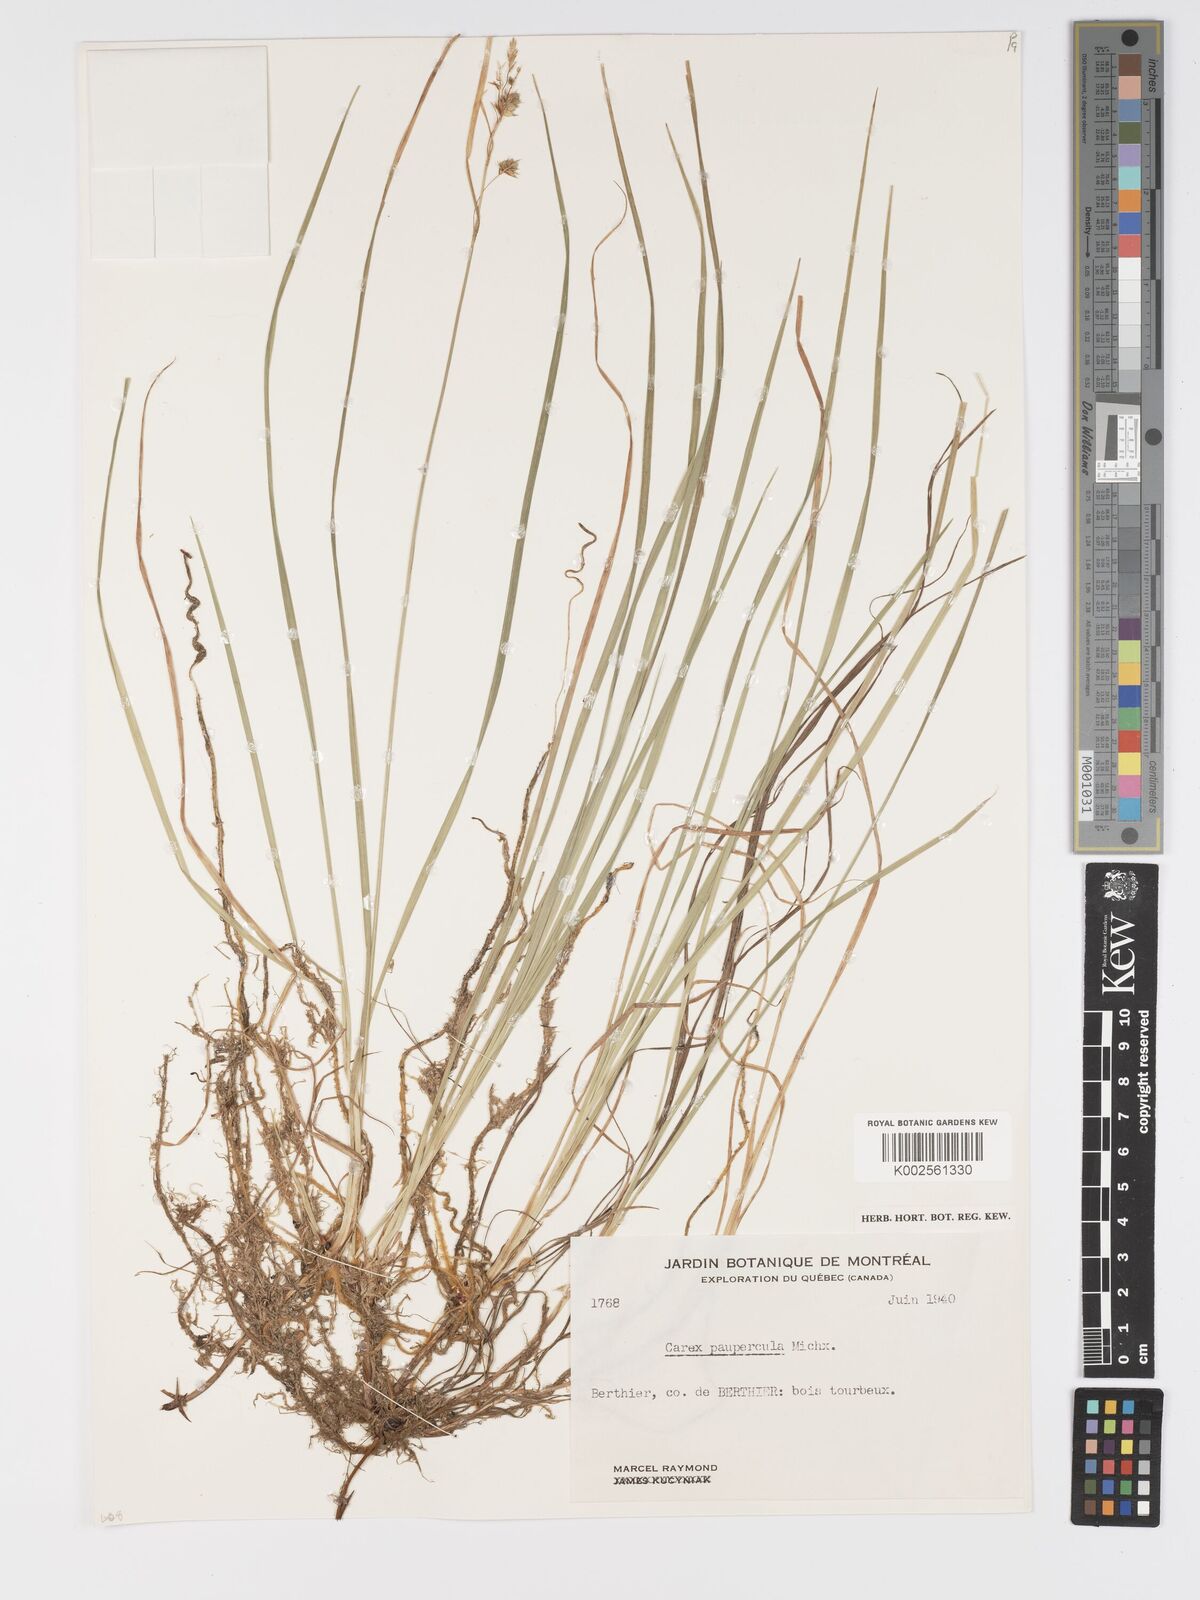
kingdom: Plantae
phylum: Tracheophyta
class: Liliopsida
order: Poales
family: Cyperaceae
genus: Carex
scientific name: Carex magellanica
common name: Bog sedge
